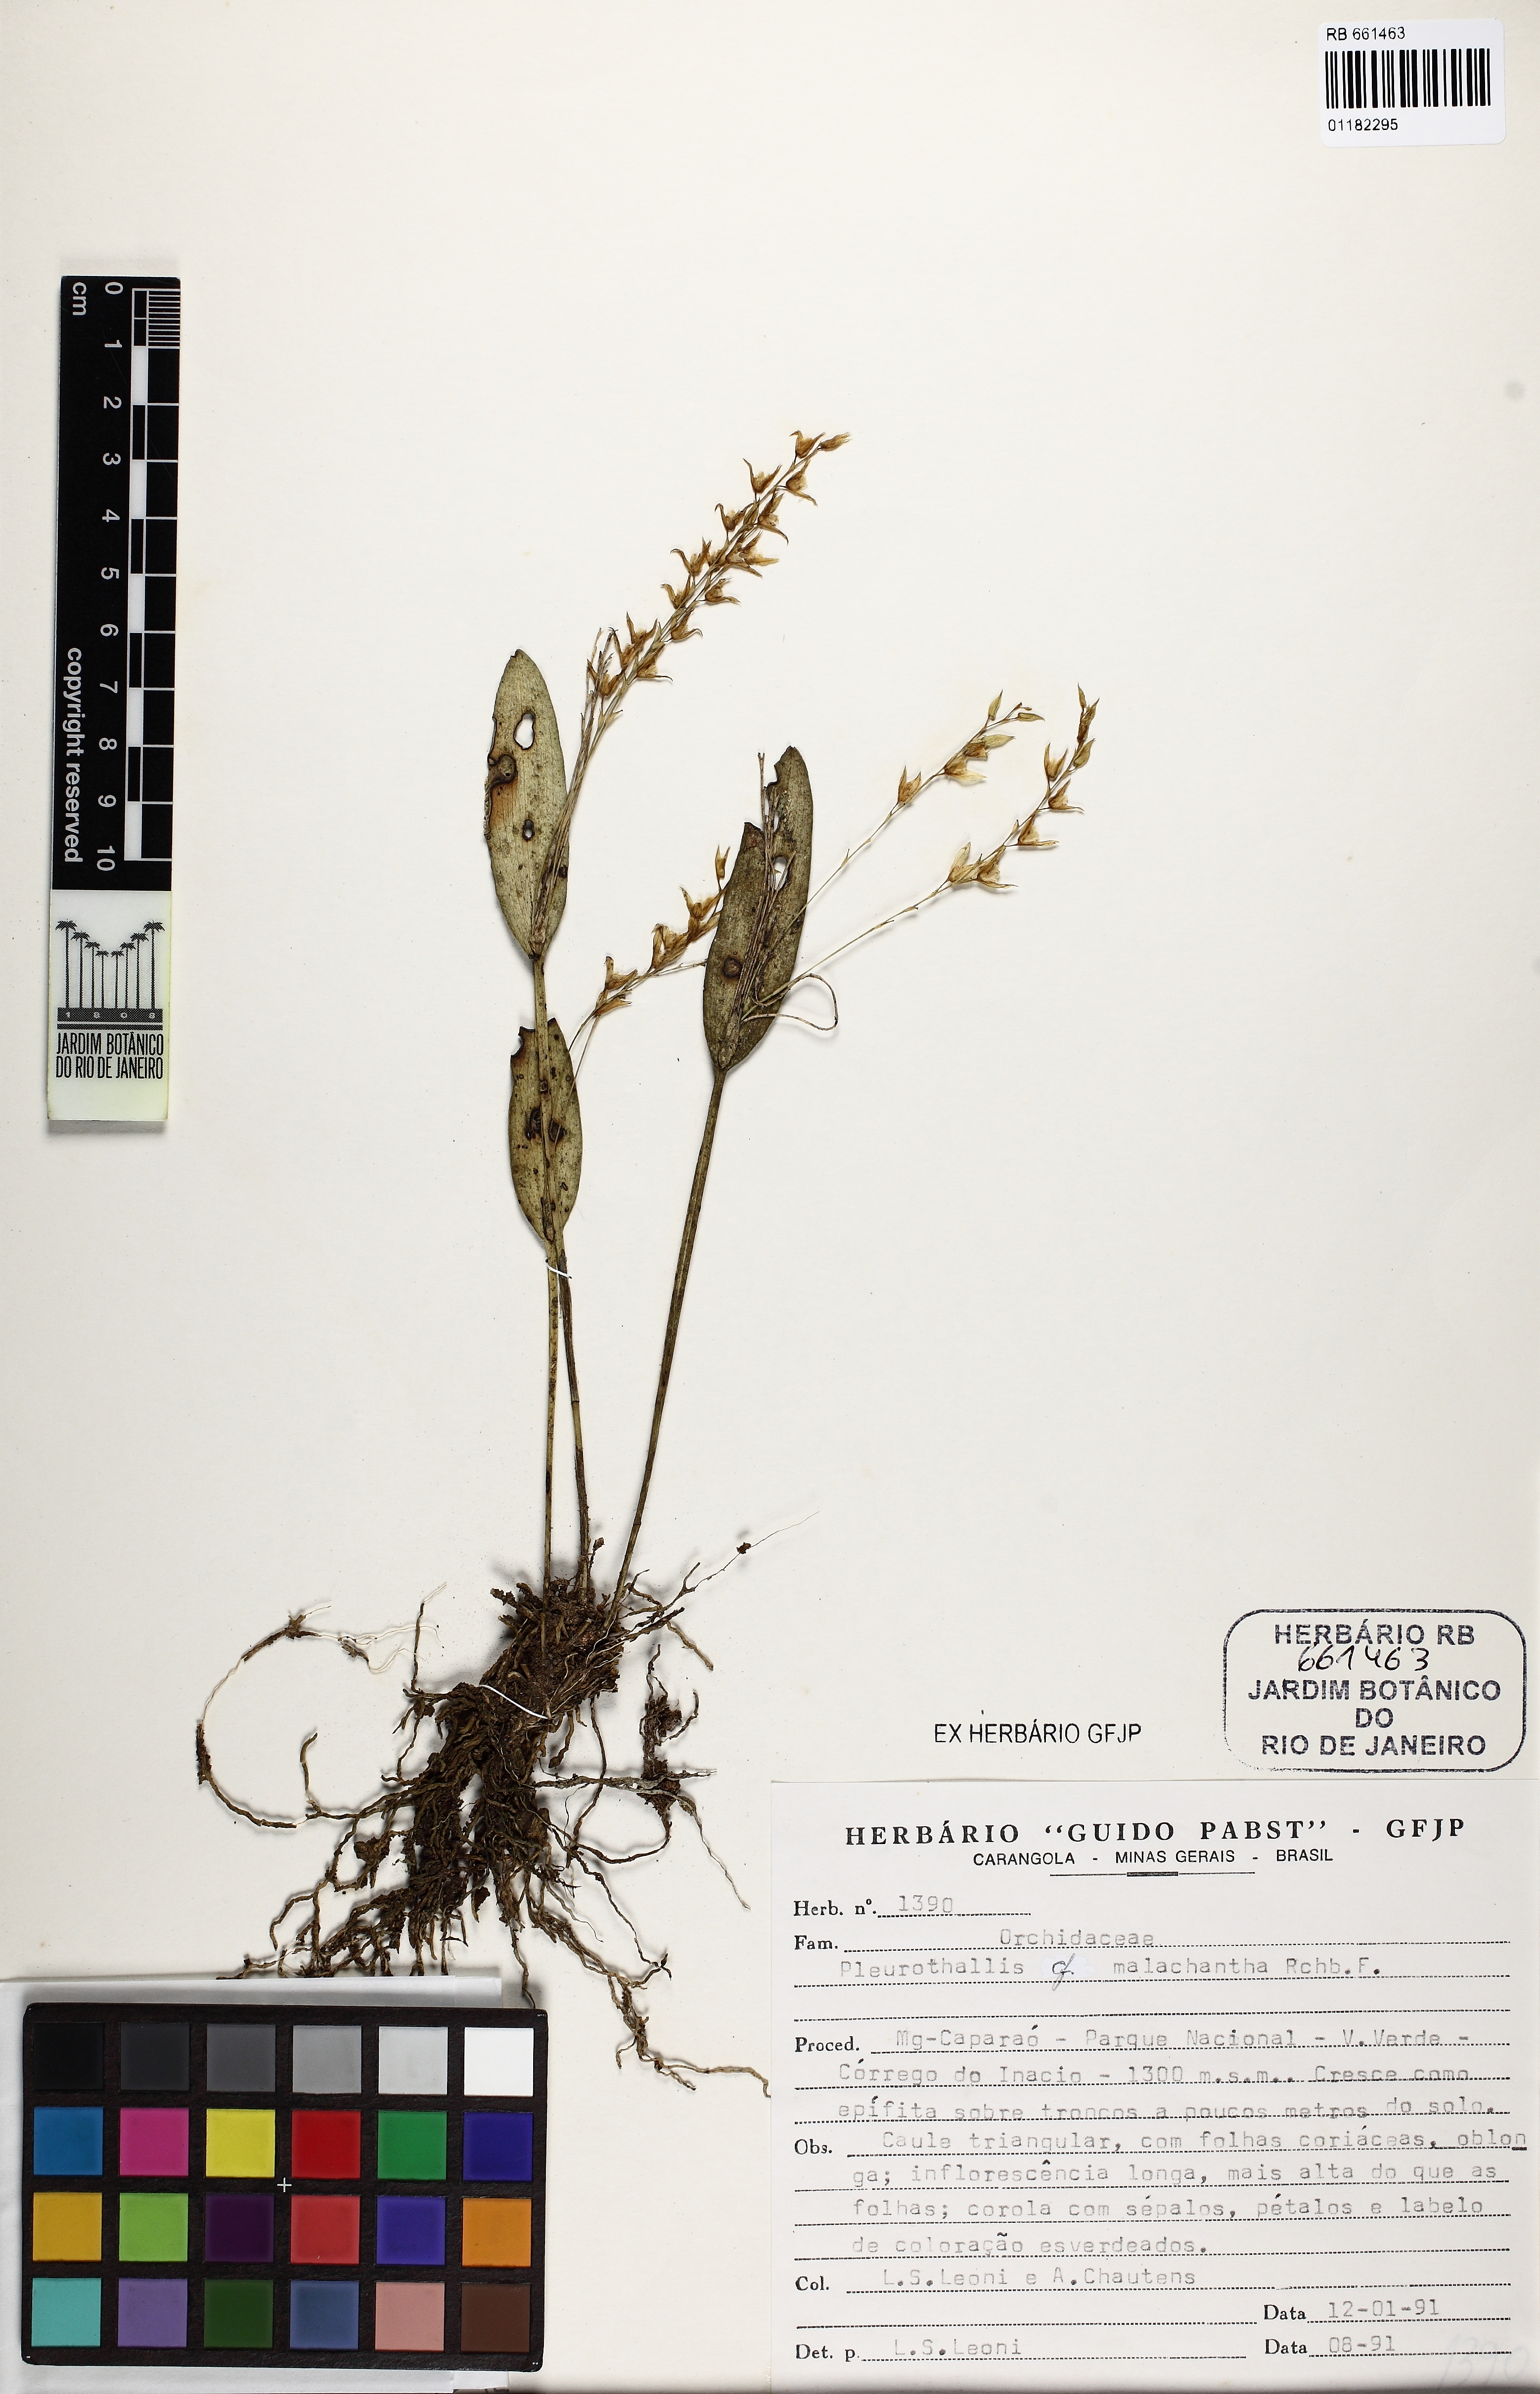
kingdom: Plantae
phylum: Tracheophyta
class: Liliopsida
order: Asparagales
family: Orchidaceae
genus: Acianthera
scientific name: Acianthera malachantha
